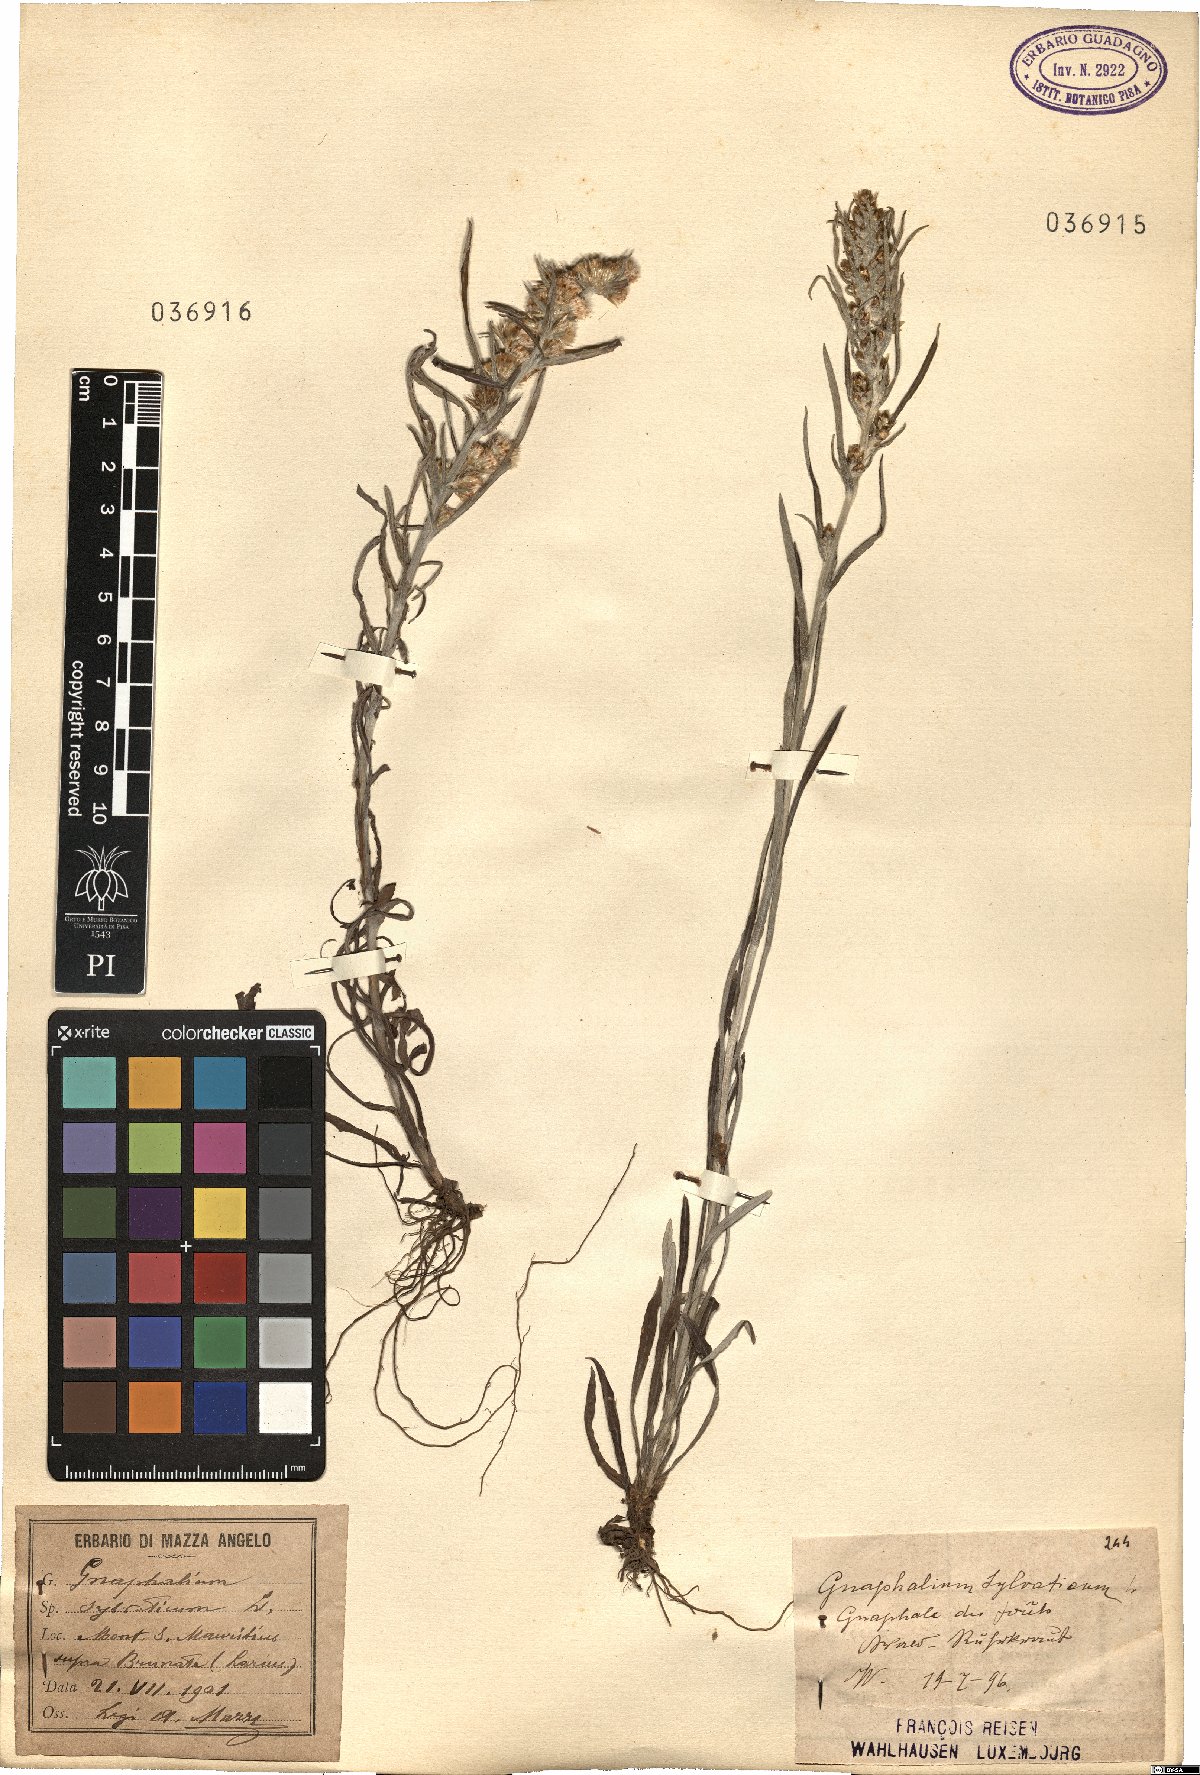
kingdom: Plantae
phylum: Tracheophyta
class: Magnoliopsida
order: Asterales
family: Asteraceae
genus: Omalotheca
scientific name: Omalotheca sylvatica
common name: Heath cudweed
